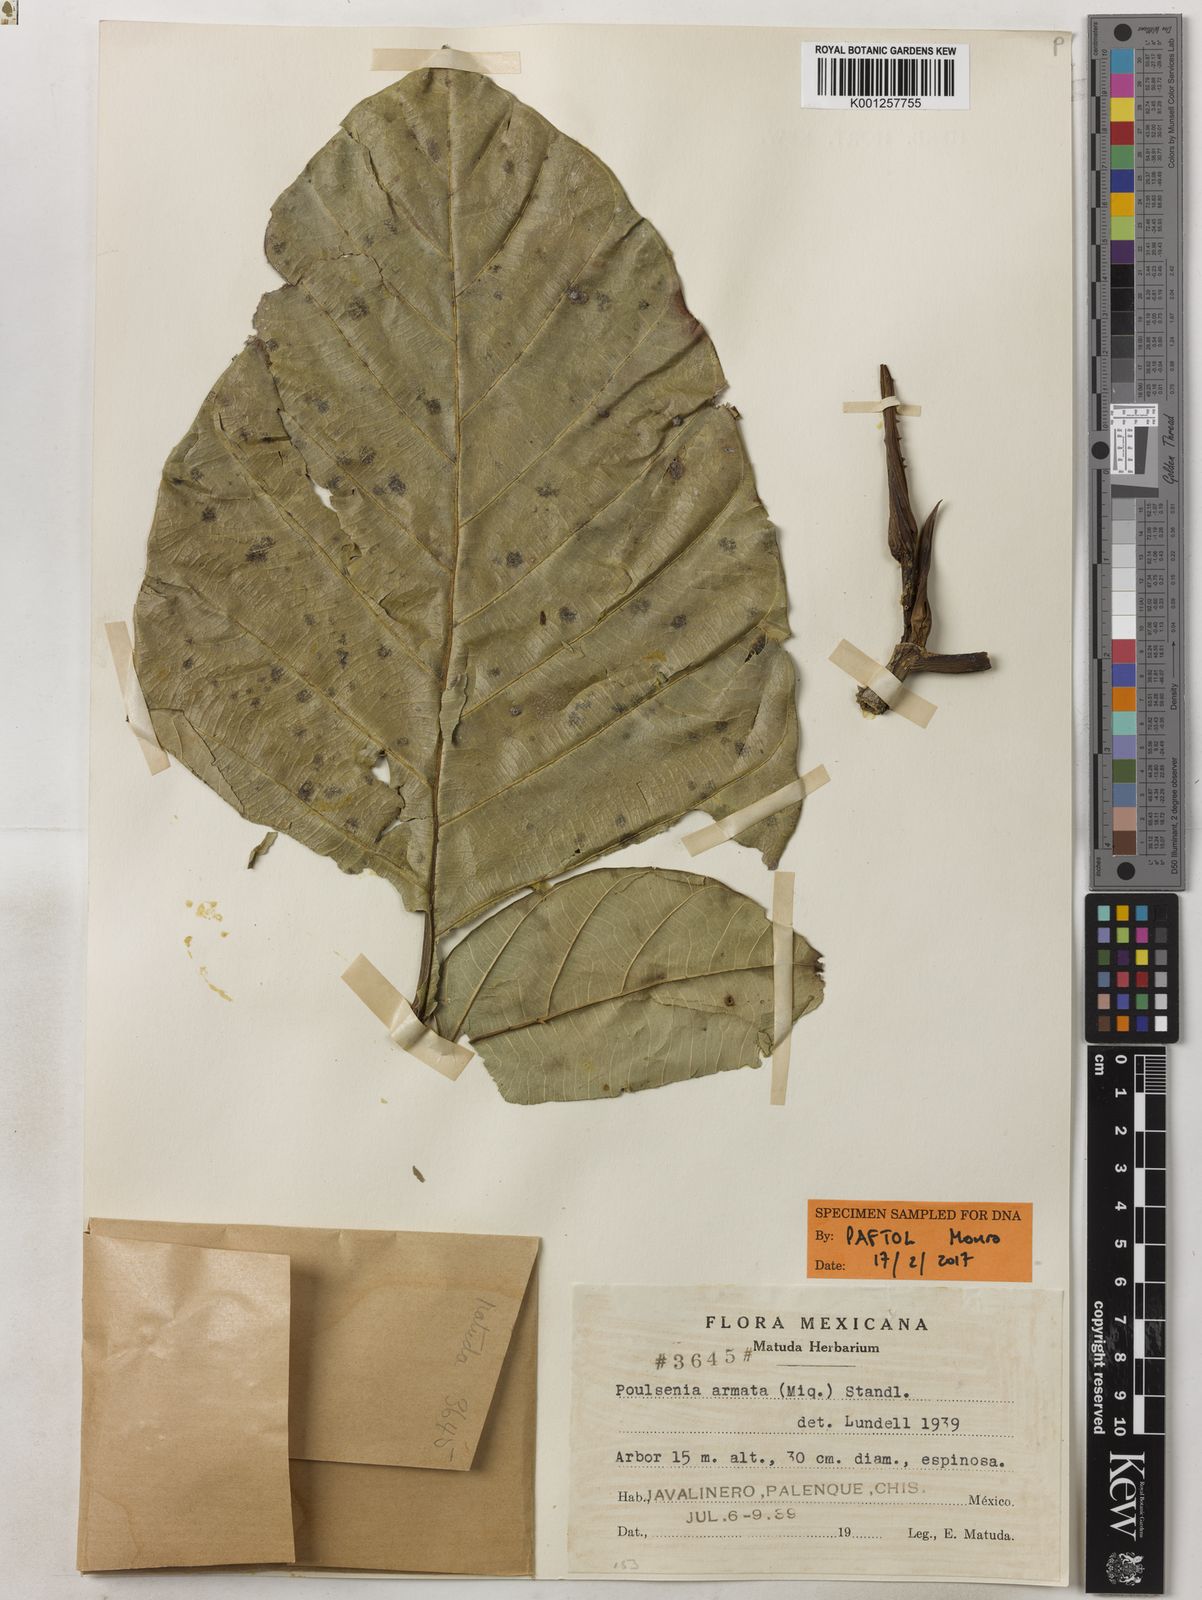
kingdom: Plantae
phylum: Tracheophyta
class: Magnoliopsida
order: Rosales
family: Moraceae
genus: Poulsenia
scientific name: Poulsenia armata
